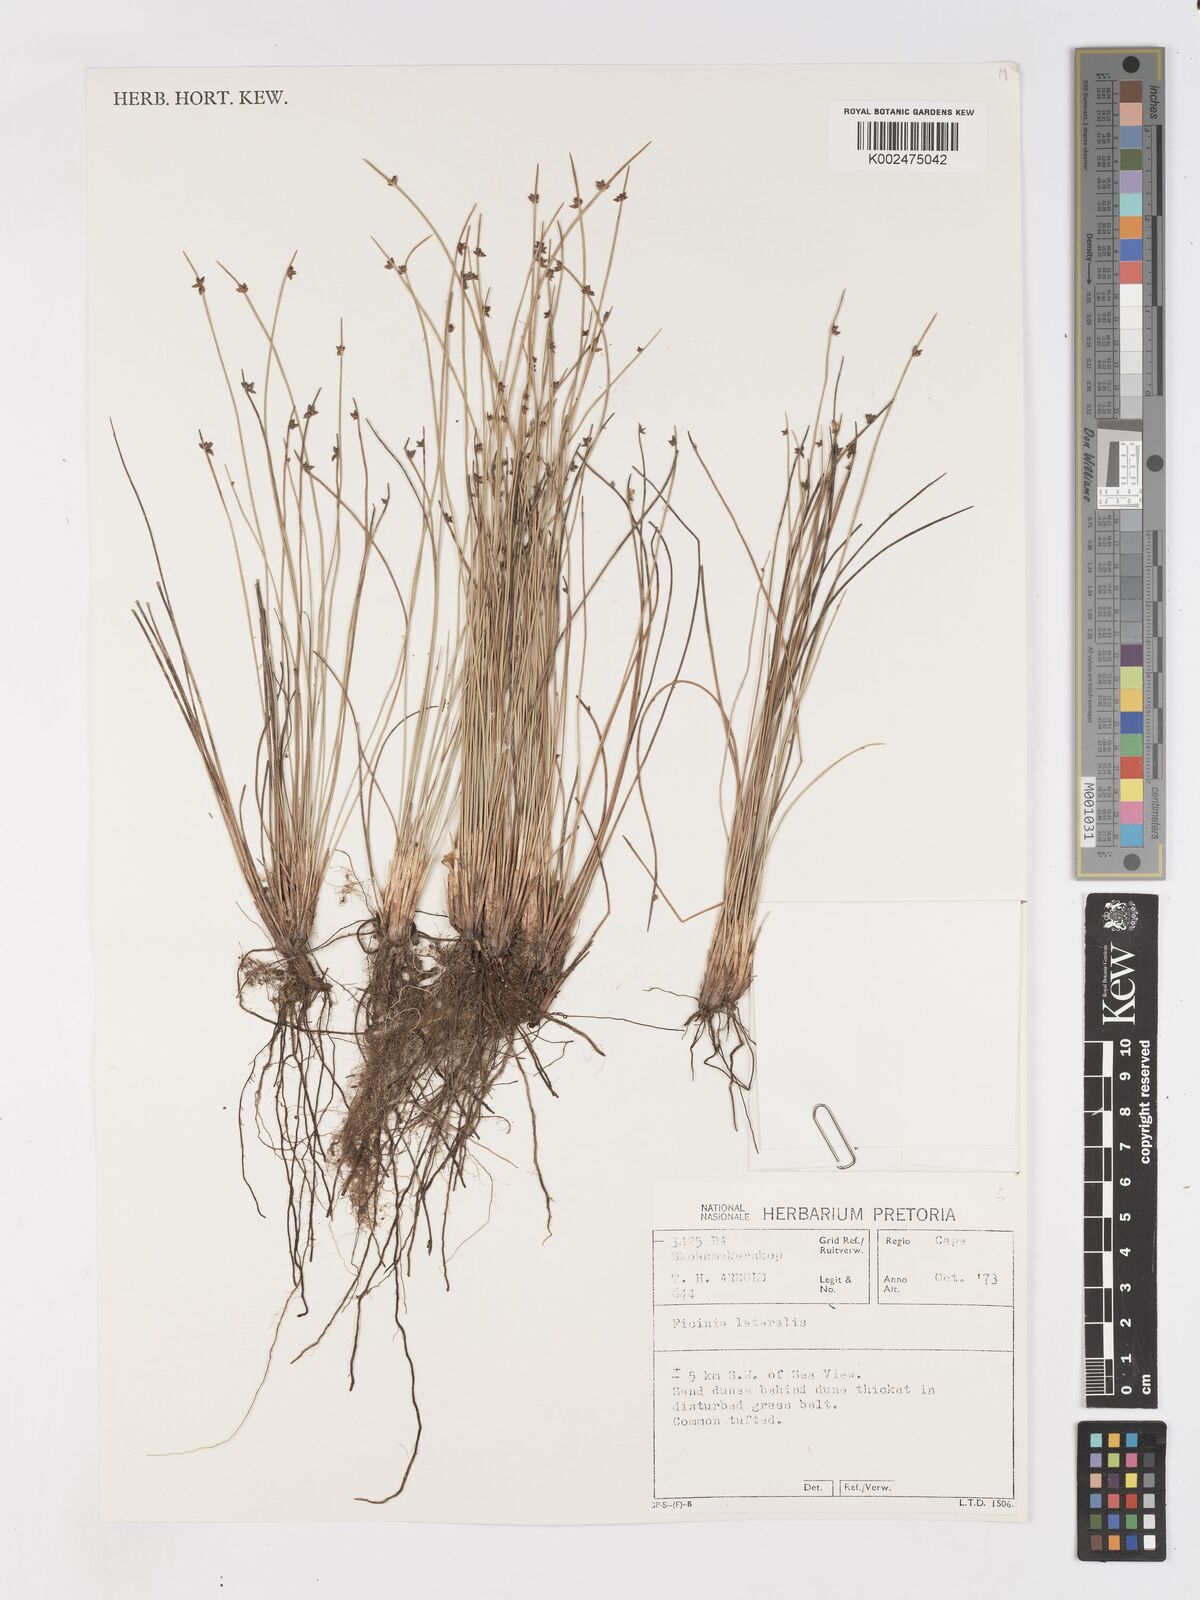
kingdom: Plantae
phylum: Tracheophyta
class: Liliopsida
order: Poales
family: Cyperaceae
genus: Ficinia
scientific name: Ficinia lateralis
